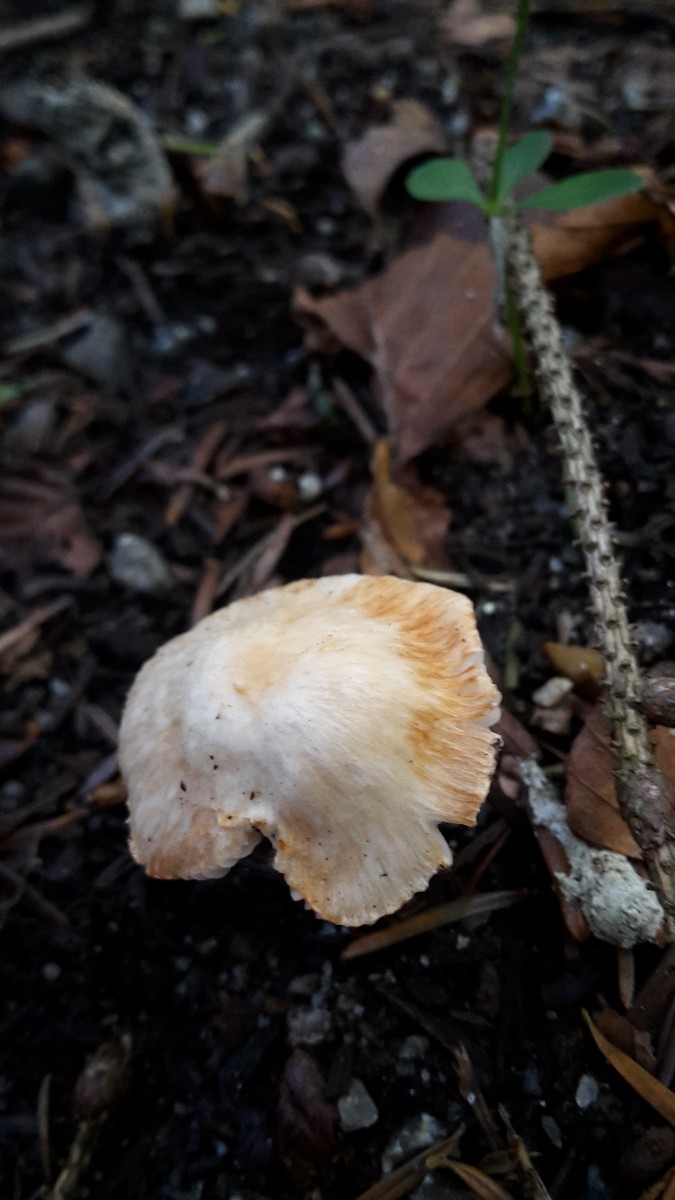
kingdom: Fungi
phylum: Basidiomycota
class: Agaricomycetes
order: Agaricales
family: Inocybaceae
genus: Inocybe
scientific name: Inocybe
